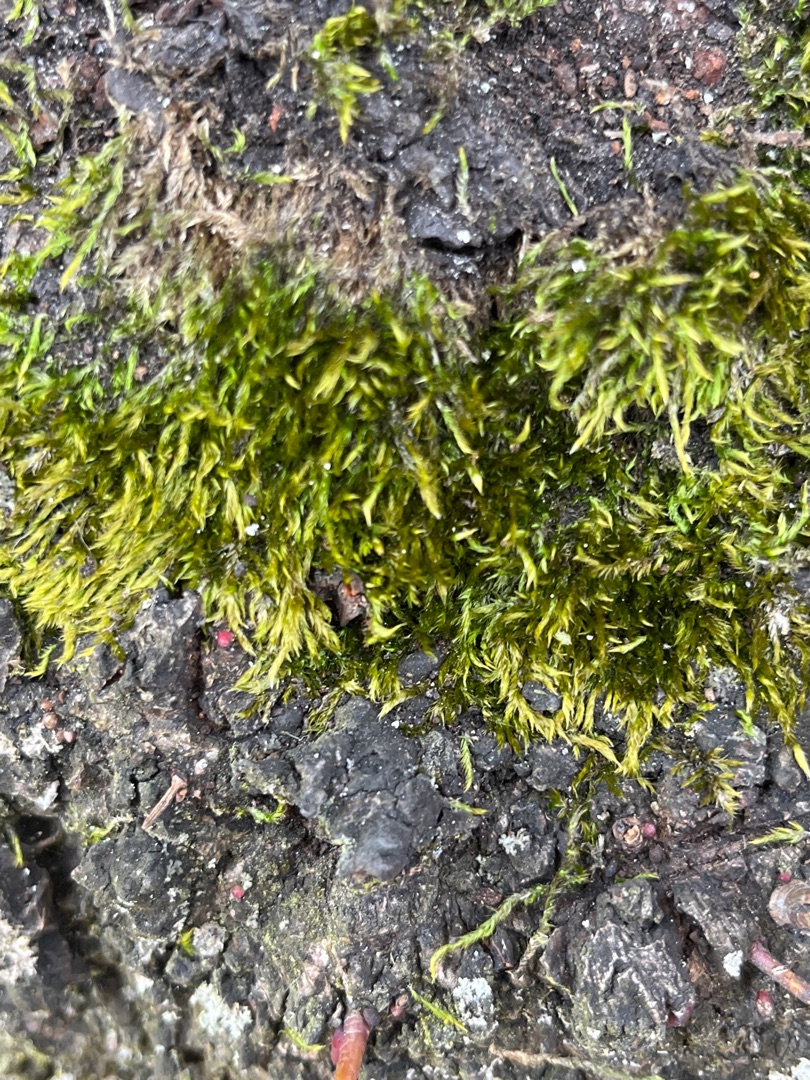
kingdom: Plantae
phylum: Bryophyta
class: Bryopsida
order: Hypnales
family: Hypnaceae
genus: Hypnum
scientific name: Hypnum
